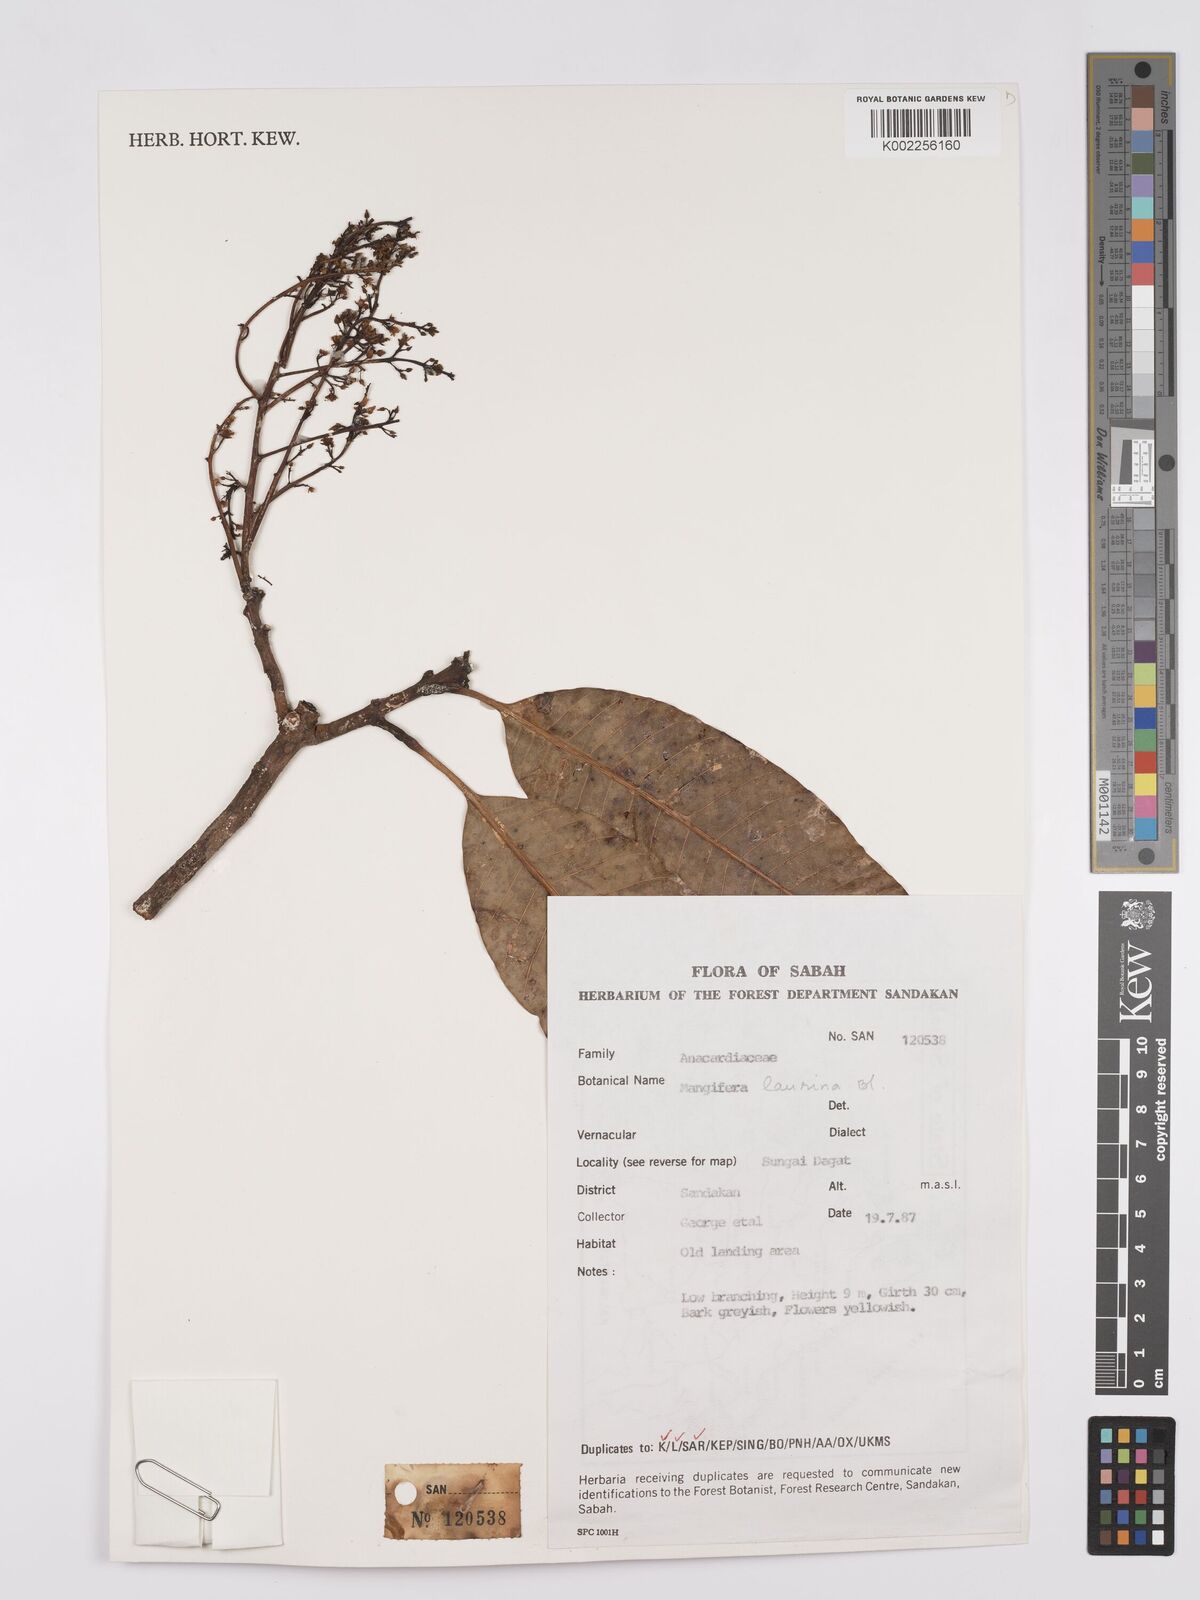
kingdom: Plantae
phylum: Tracheophyta
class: Magnoliopsida
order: Sapindales
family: Anacardiaceae
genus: Mangifera
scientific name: Mangifera laurina
